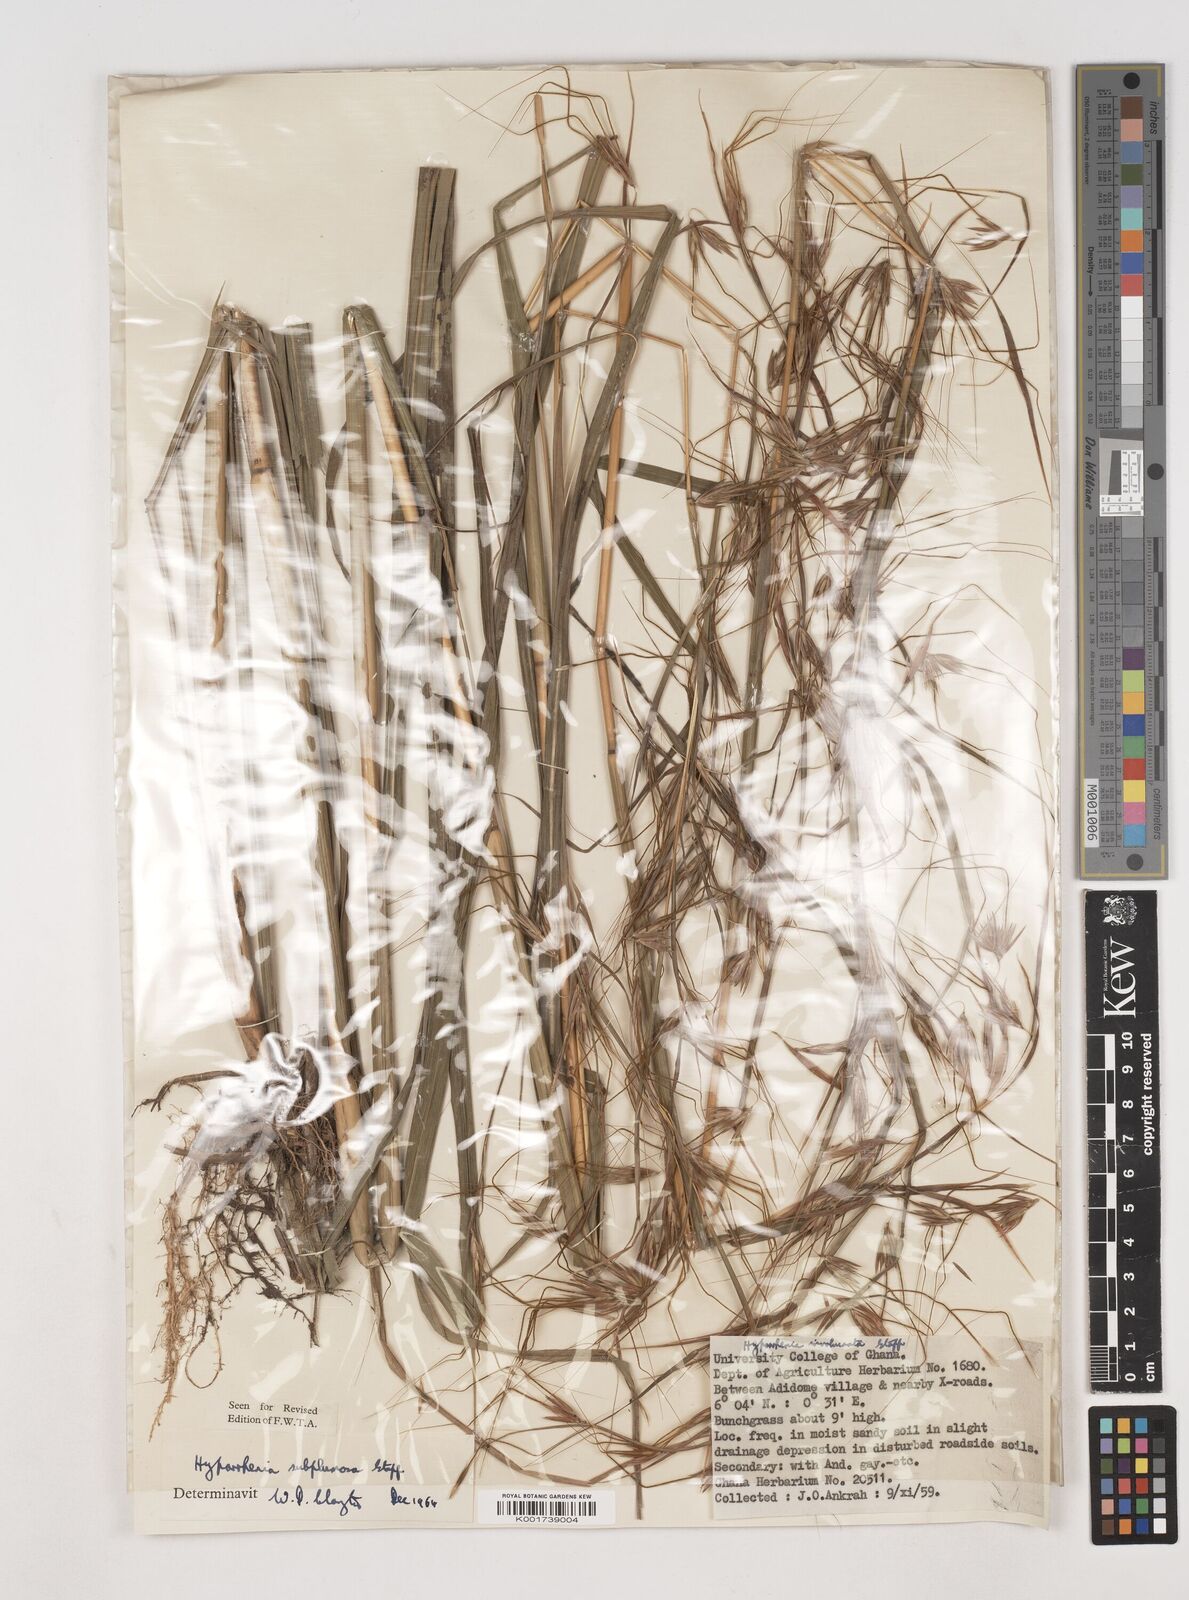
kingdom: Plantae
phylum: Tracheophyta
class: Liliopsida
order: Poales
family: Poaceae
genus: Hyparrhenia
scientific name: Hyparrhenia
